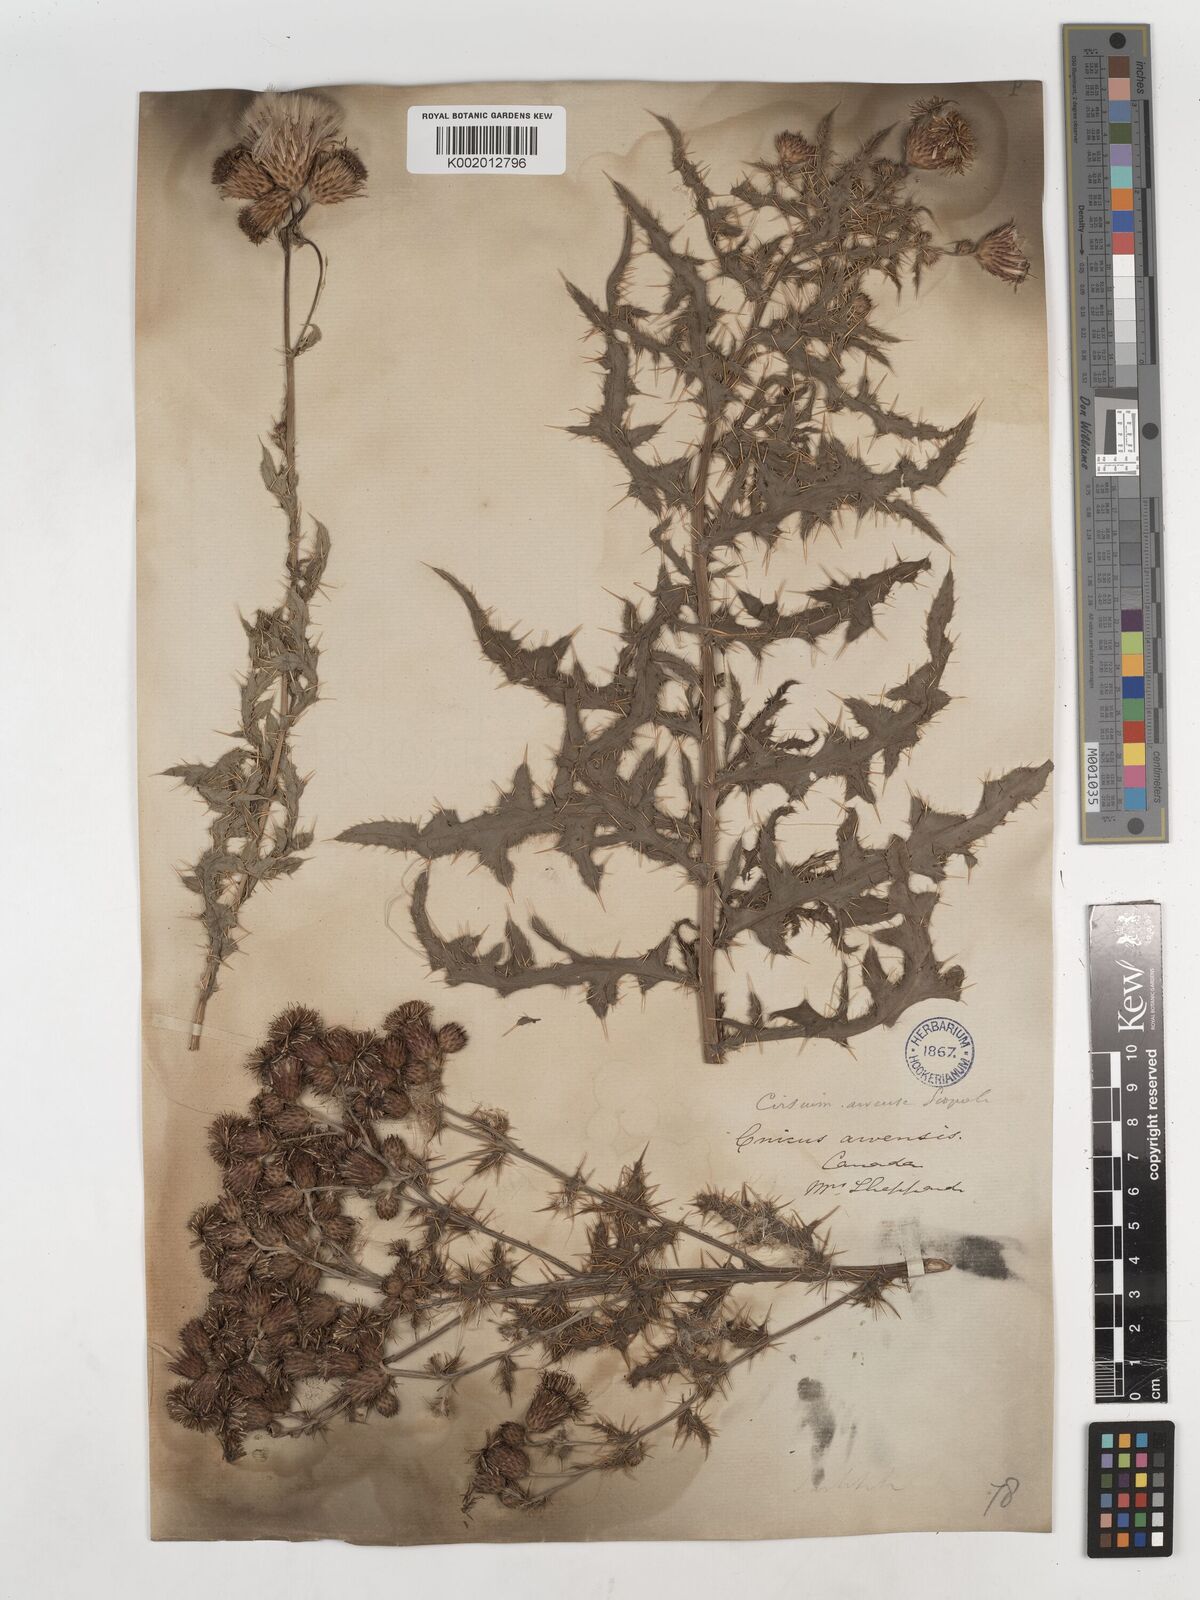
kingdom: Plantae
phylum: Tracheophyta
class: Magnoliopsida
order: Asterales
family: Asteraceae
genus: Cirsium
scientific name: Cirsium arvense
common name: Creeping thistle
